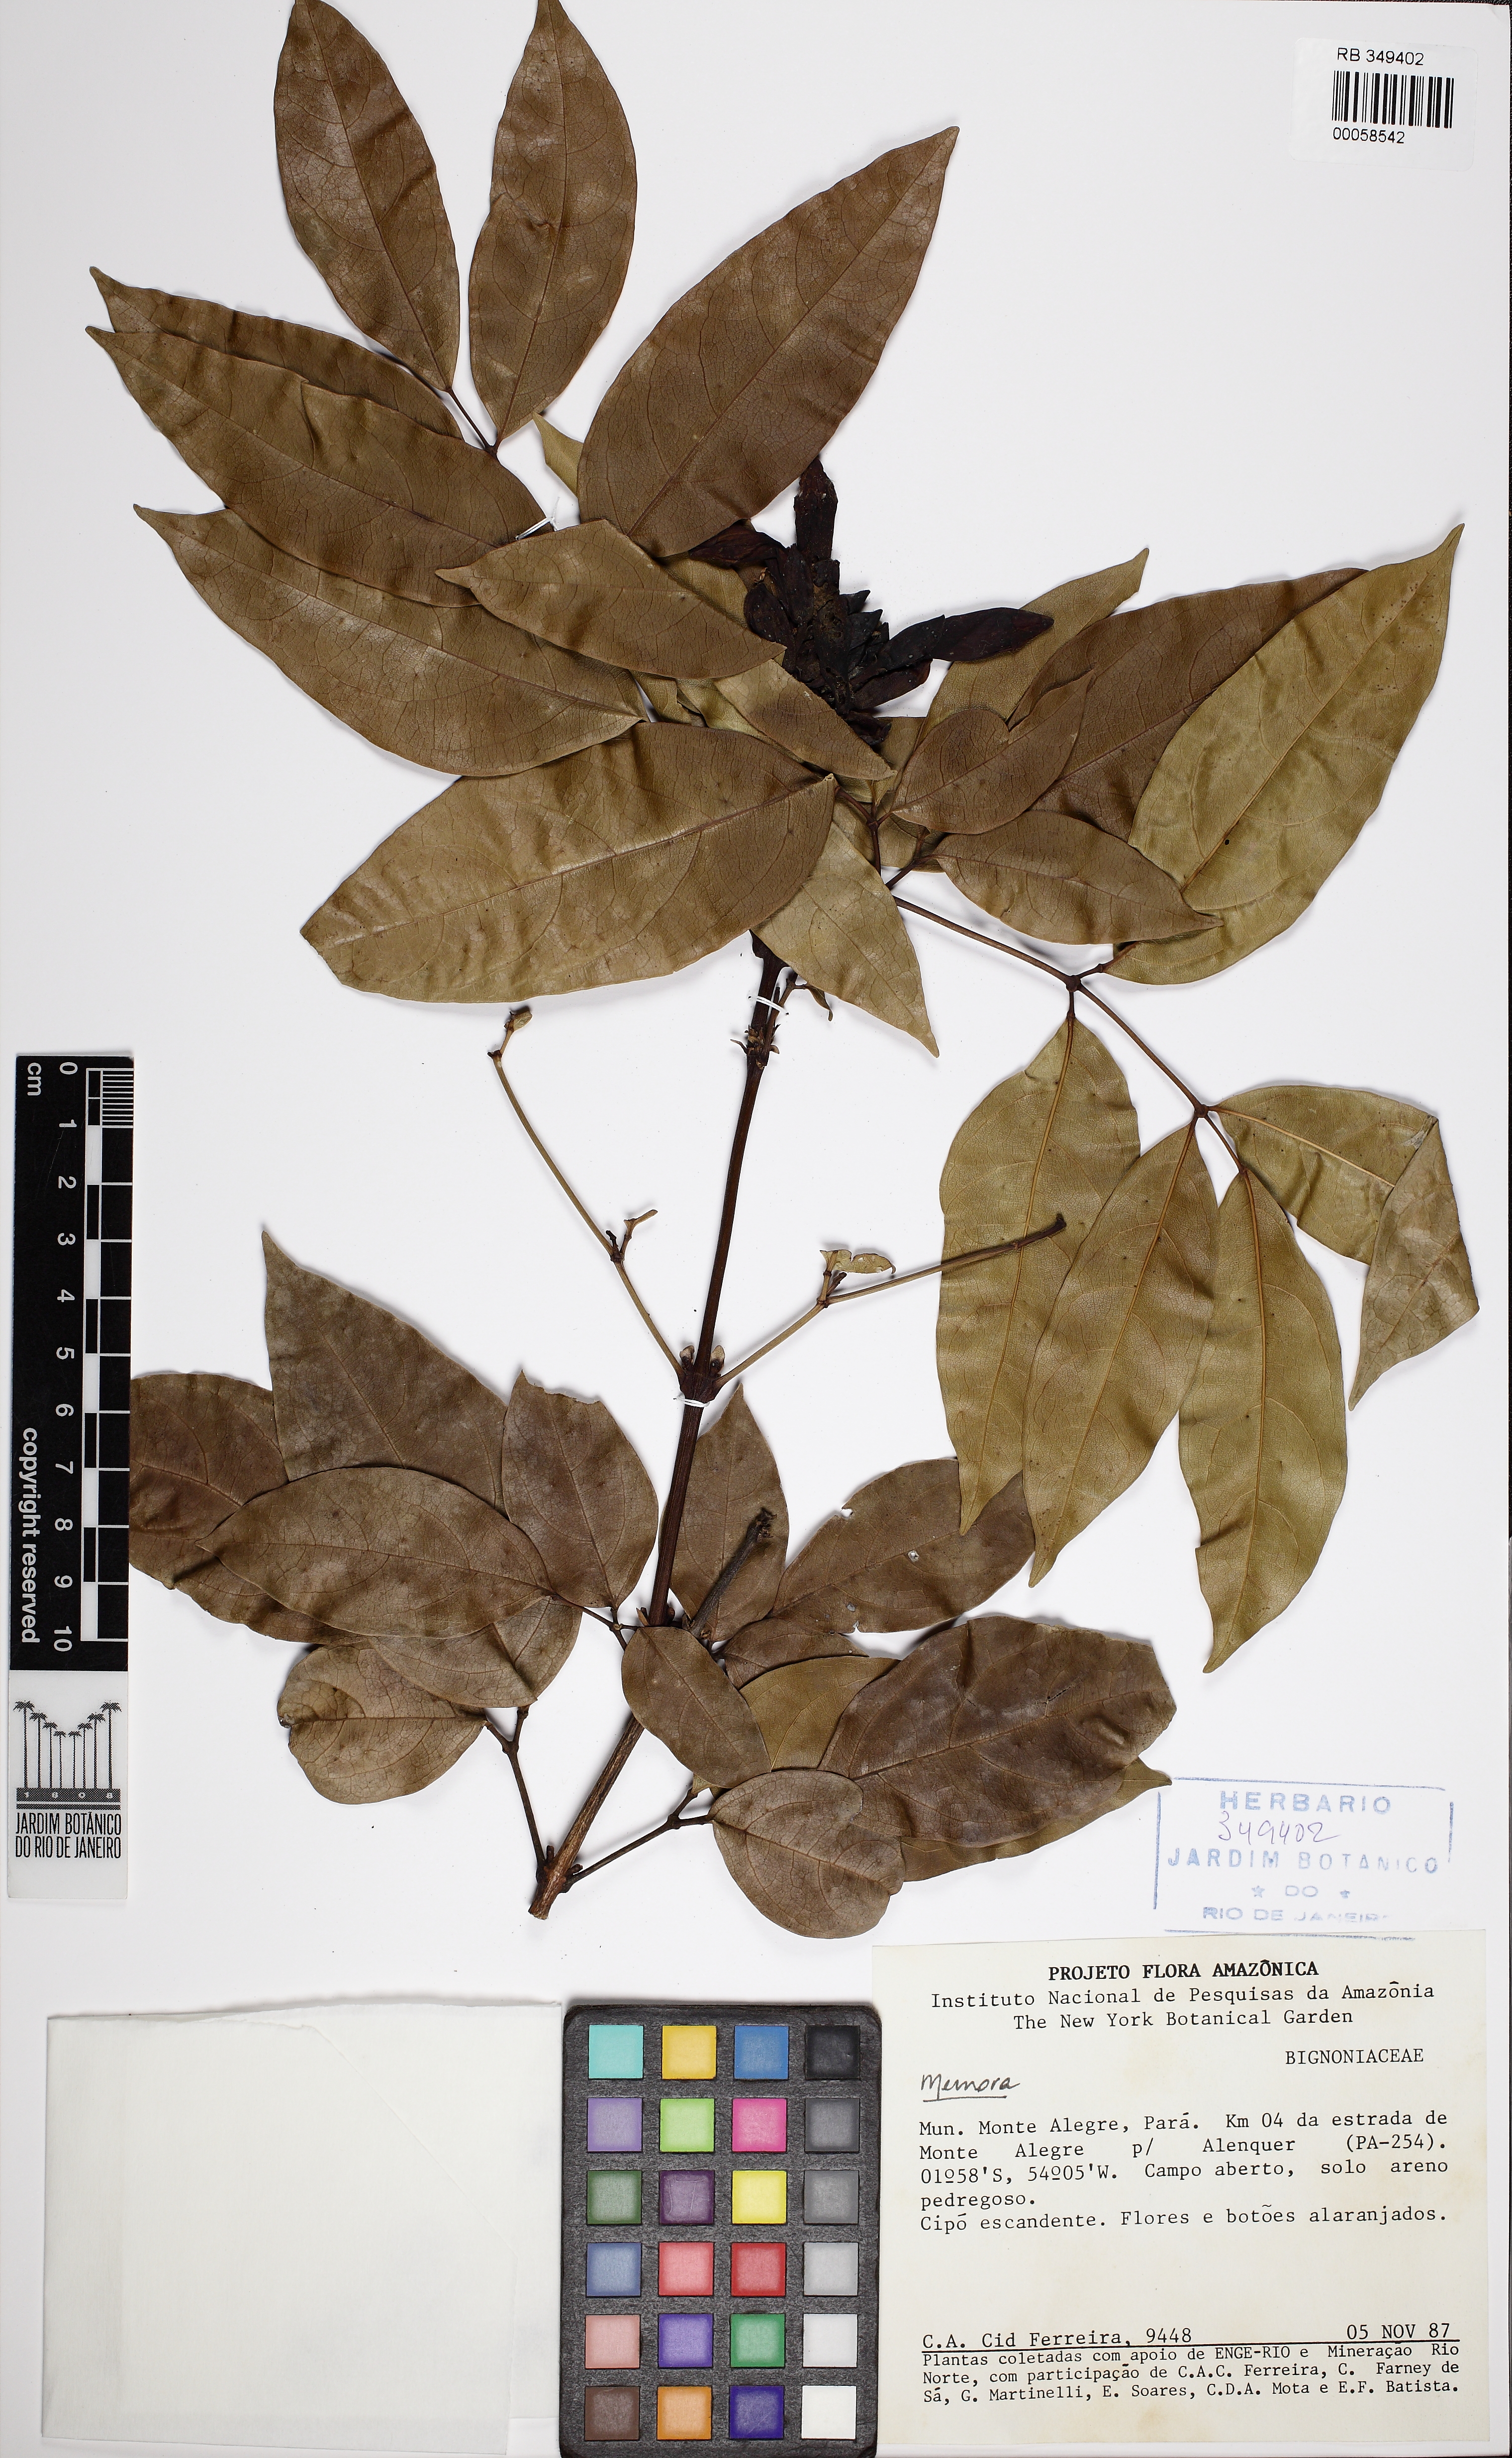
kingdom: Plantae
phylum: Tracheophyta
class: Magnoliopsida
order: Lamiales
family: Bignoniaceae
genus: Adenocalymma
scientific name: Adenocalymma magnificum
